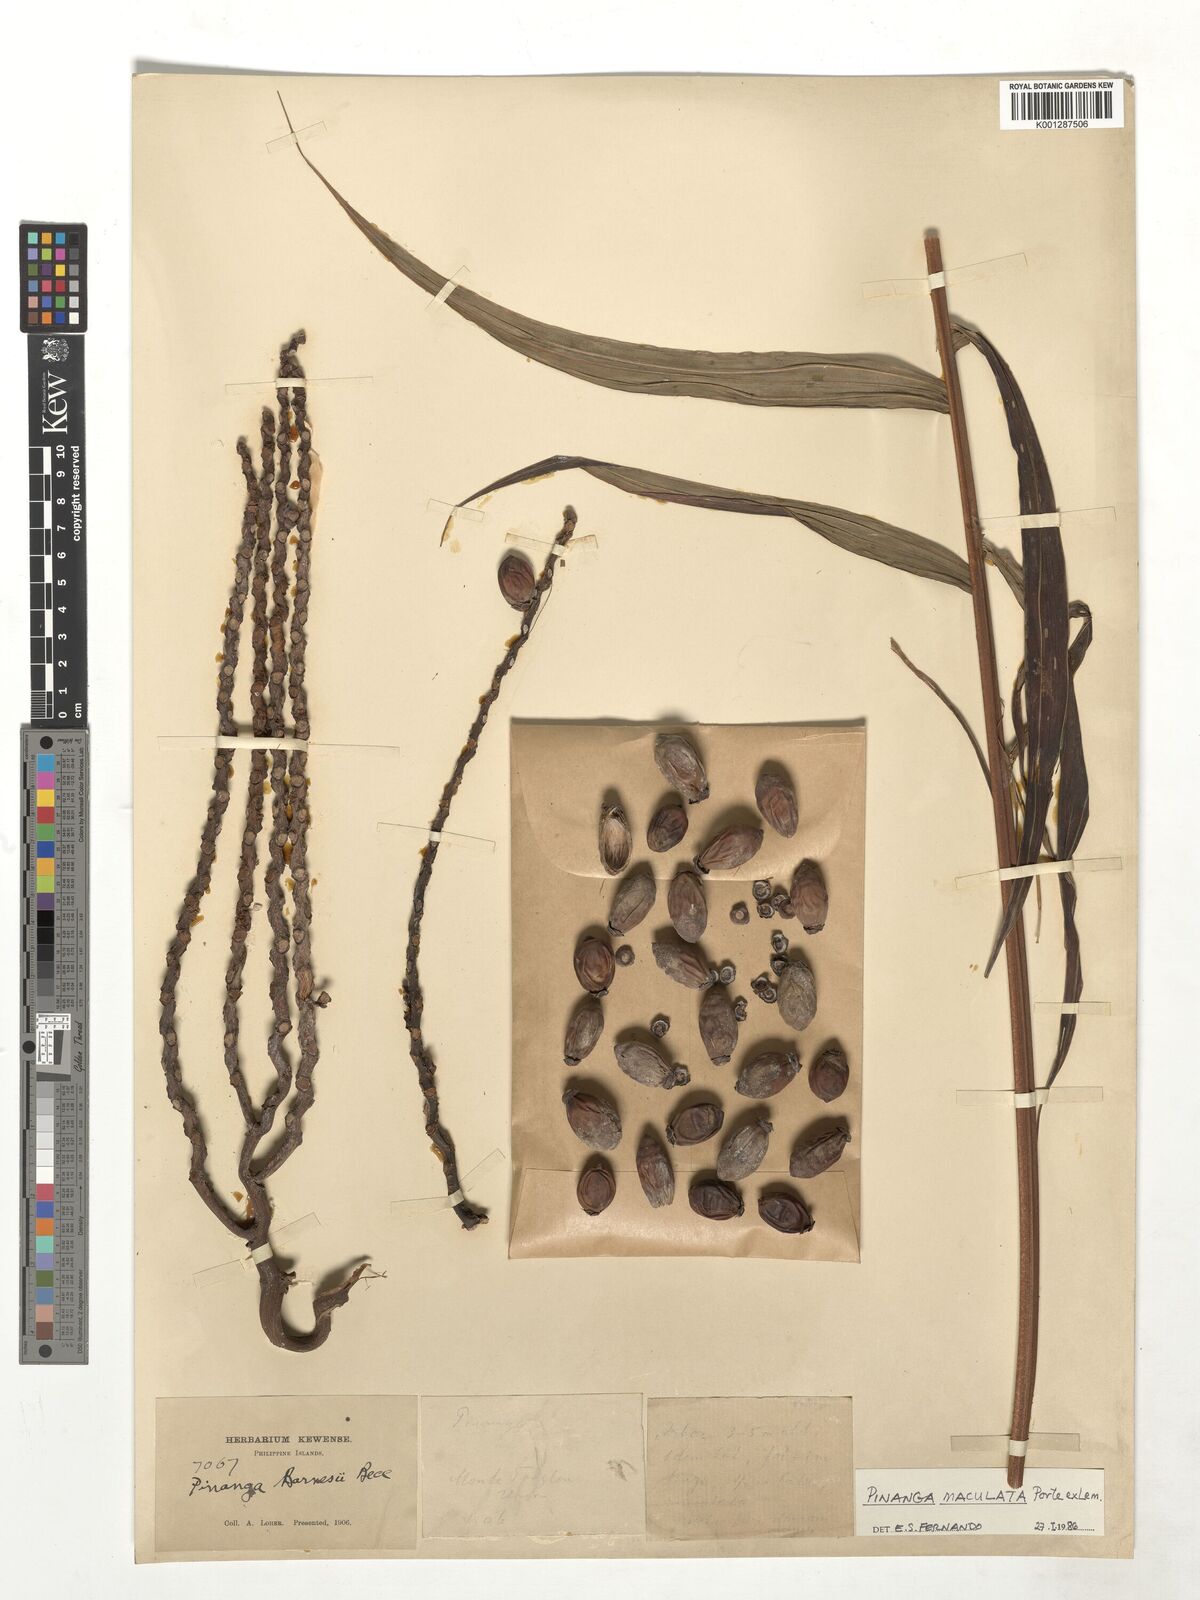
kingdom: Plantae
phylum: Tracheophyta
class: Liliopsida
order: Arecales
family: Arecaceae
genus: Pinanga
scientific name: Pinanga maculata
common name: Tiger palm
